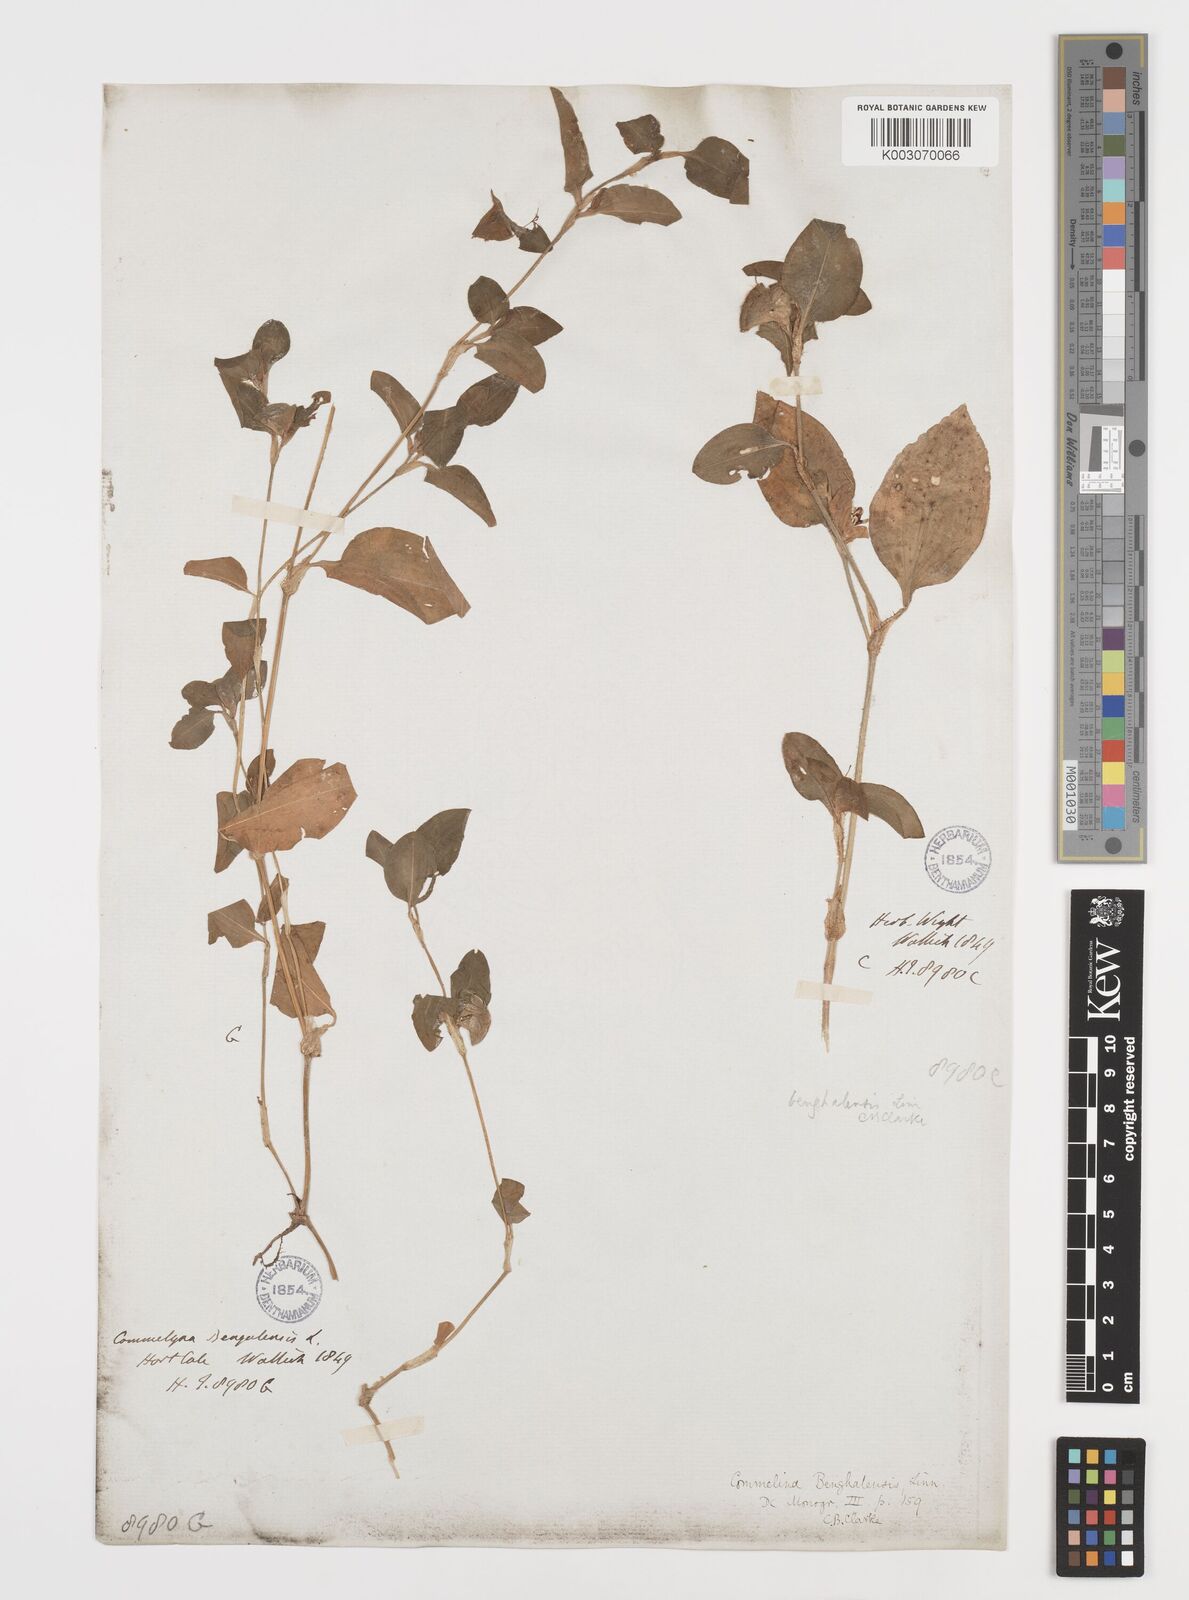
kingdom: Plantae
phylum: Tracheophyta
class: Liliopsida
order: Commelinales
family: Commelinaceae
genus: Commelina
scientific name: Commelina benghalensis
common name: Jio
